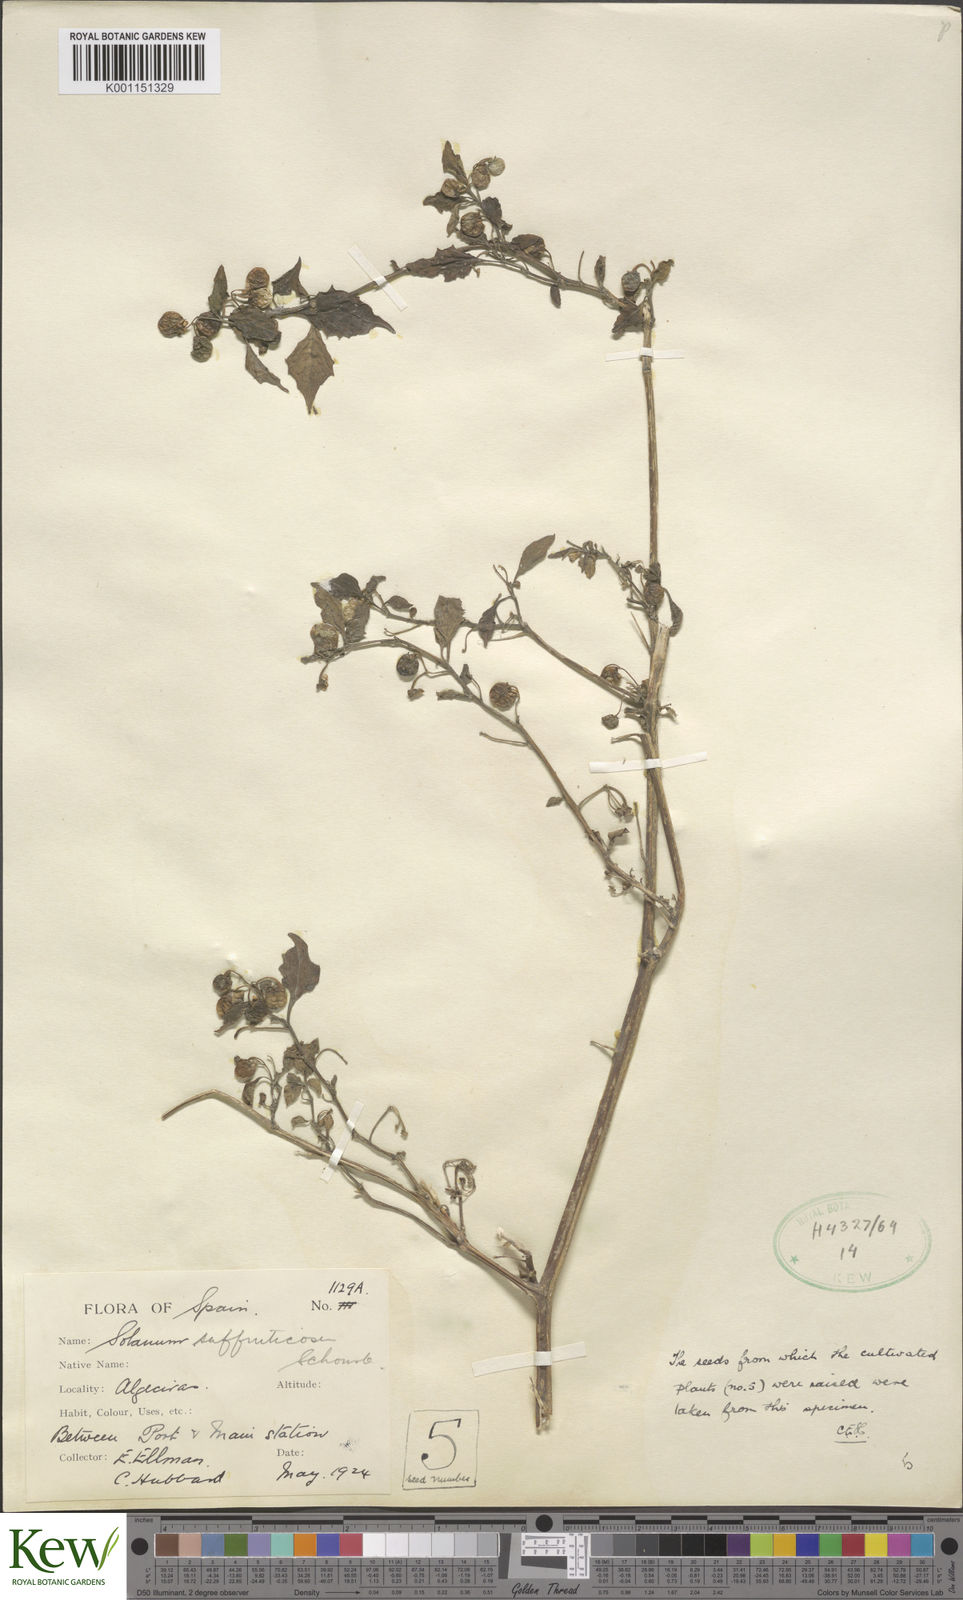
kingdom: Plantae
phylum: Tracheophyta
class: Magnoliopsida
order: Solanales
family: Solanaceae
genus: Solanum
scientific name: Solanum nigrum
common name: Black nightshade
